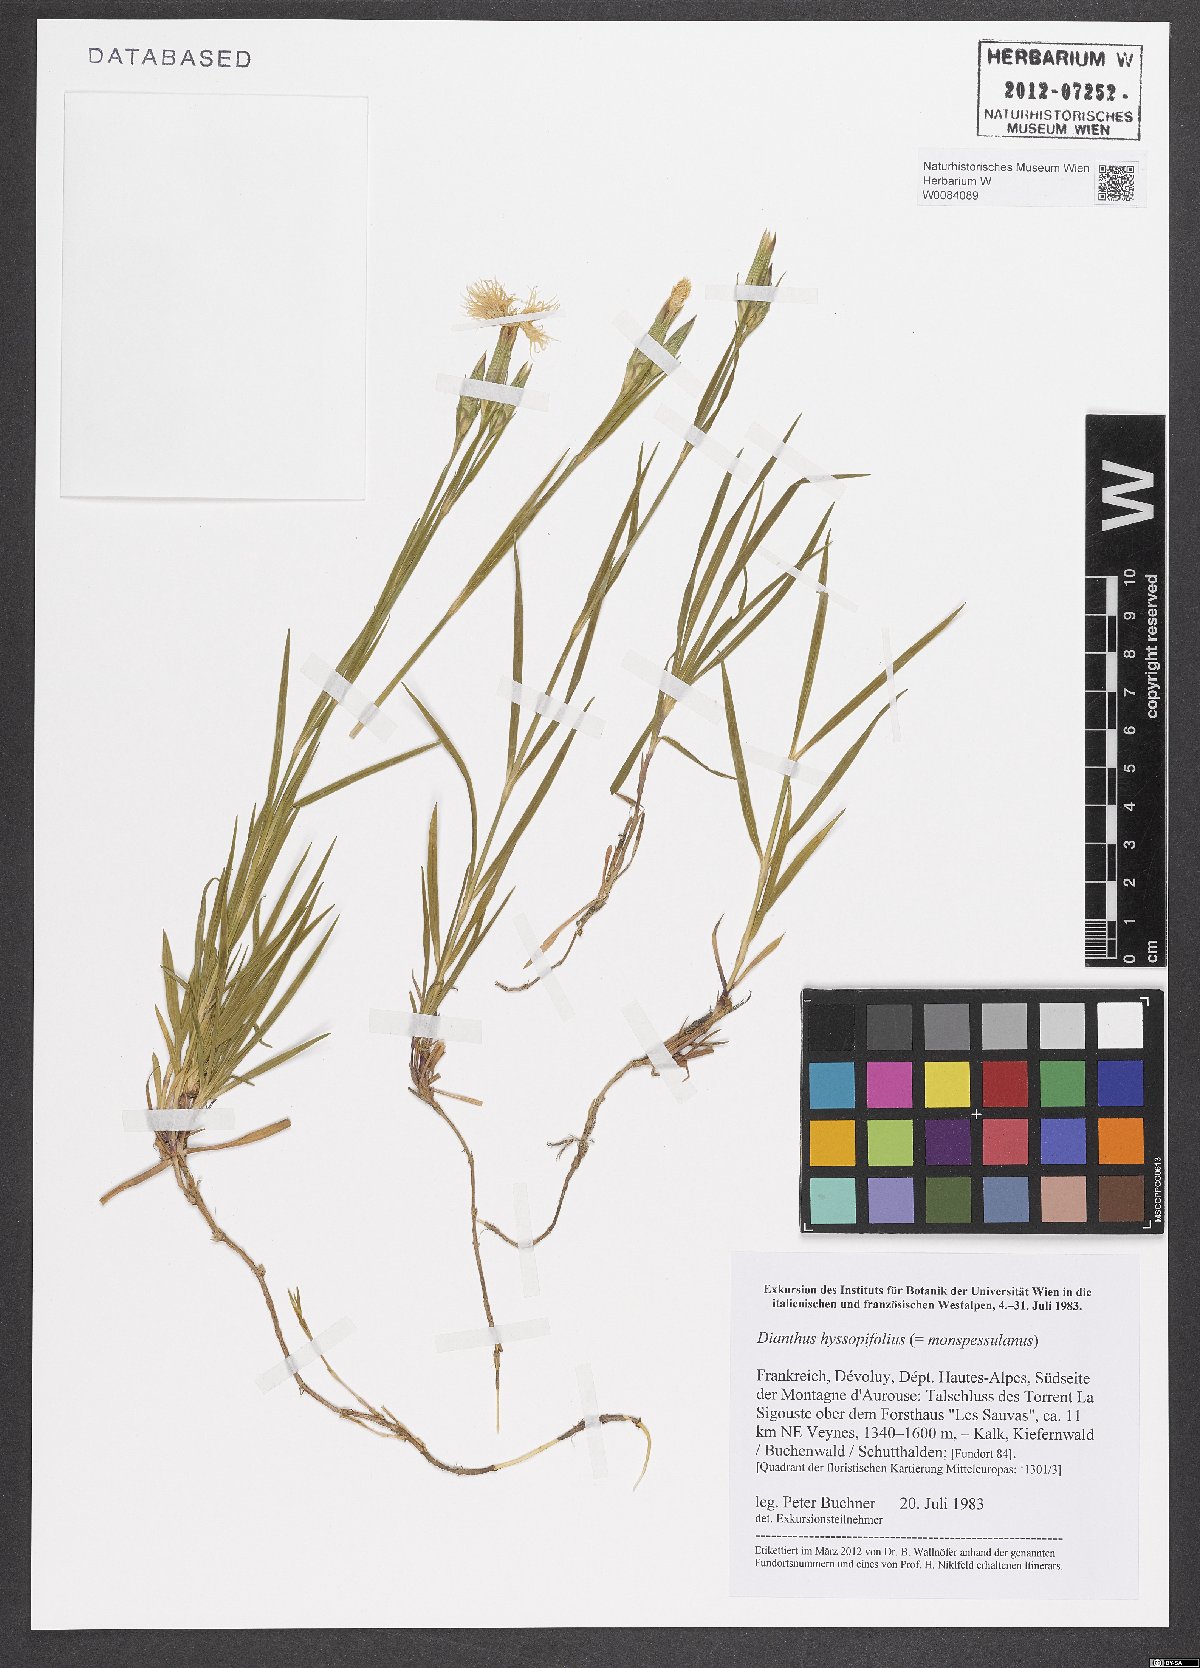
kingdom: Plantae
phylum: Tracheophyta
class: Magnoliopsida
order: Caryophyllales
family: Caryophyllaceae
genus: Dianthus
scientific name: Dianthus hyssopifolius
